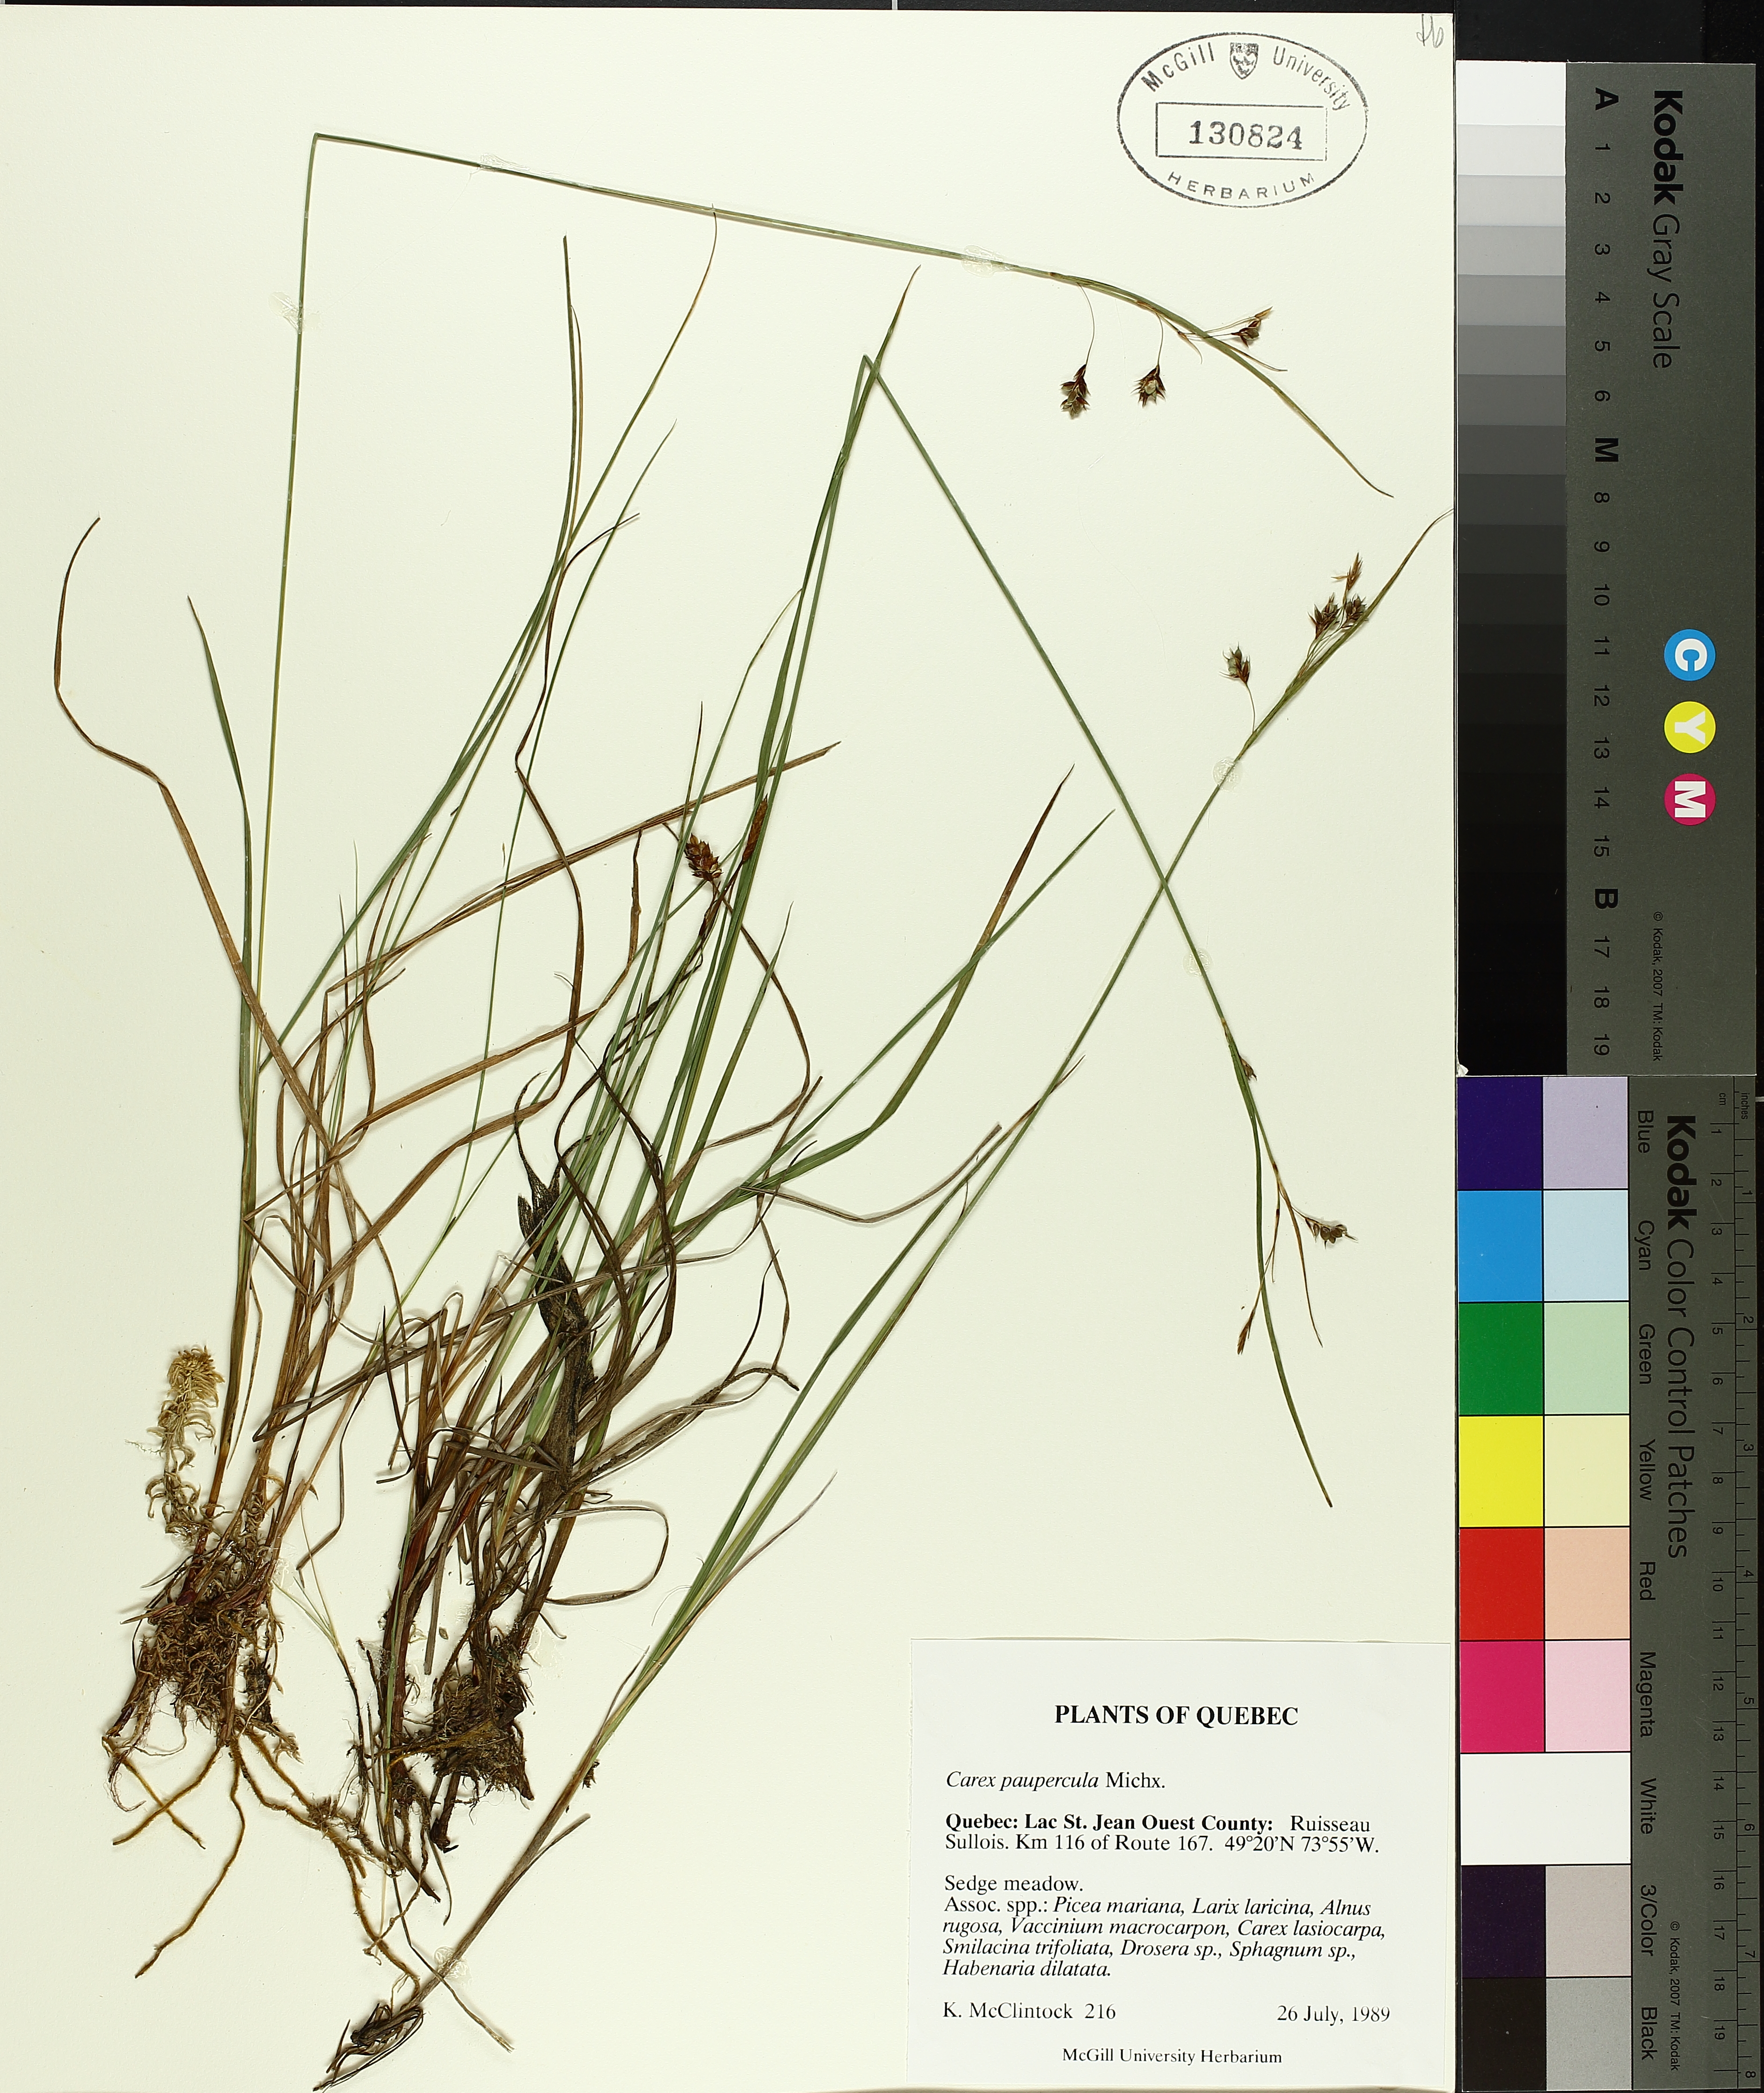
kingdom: Plantae
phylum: Tracheophyta
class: Liliopsida
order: Poales
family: Cyperaceae
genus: Carex
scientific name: Carex magellanica
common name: Bog sedge
